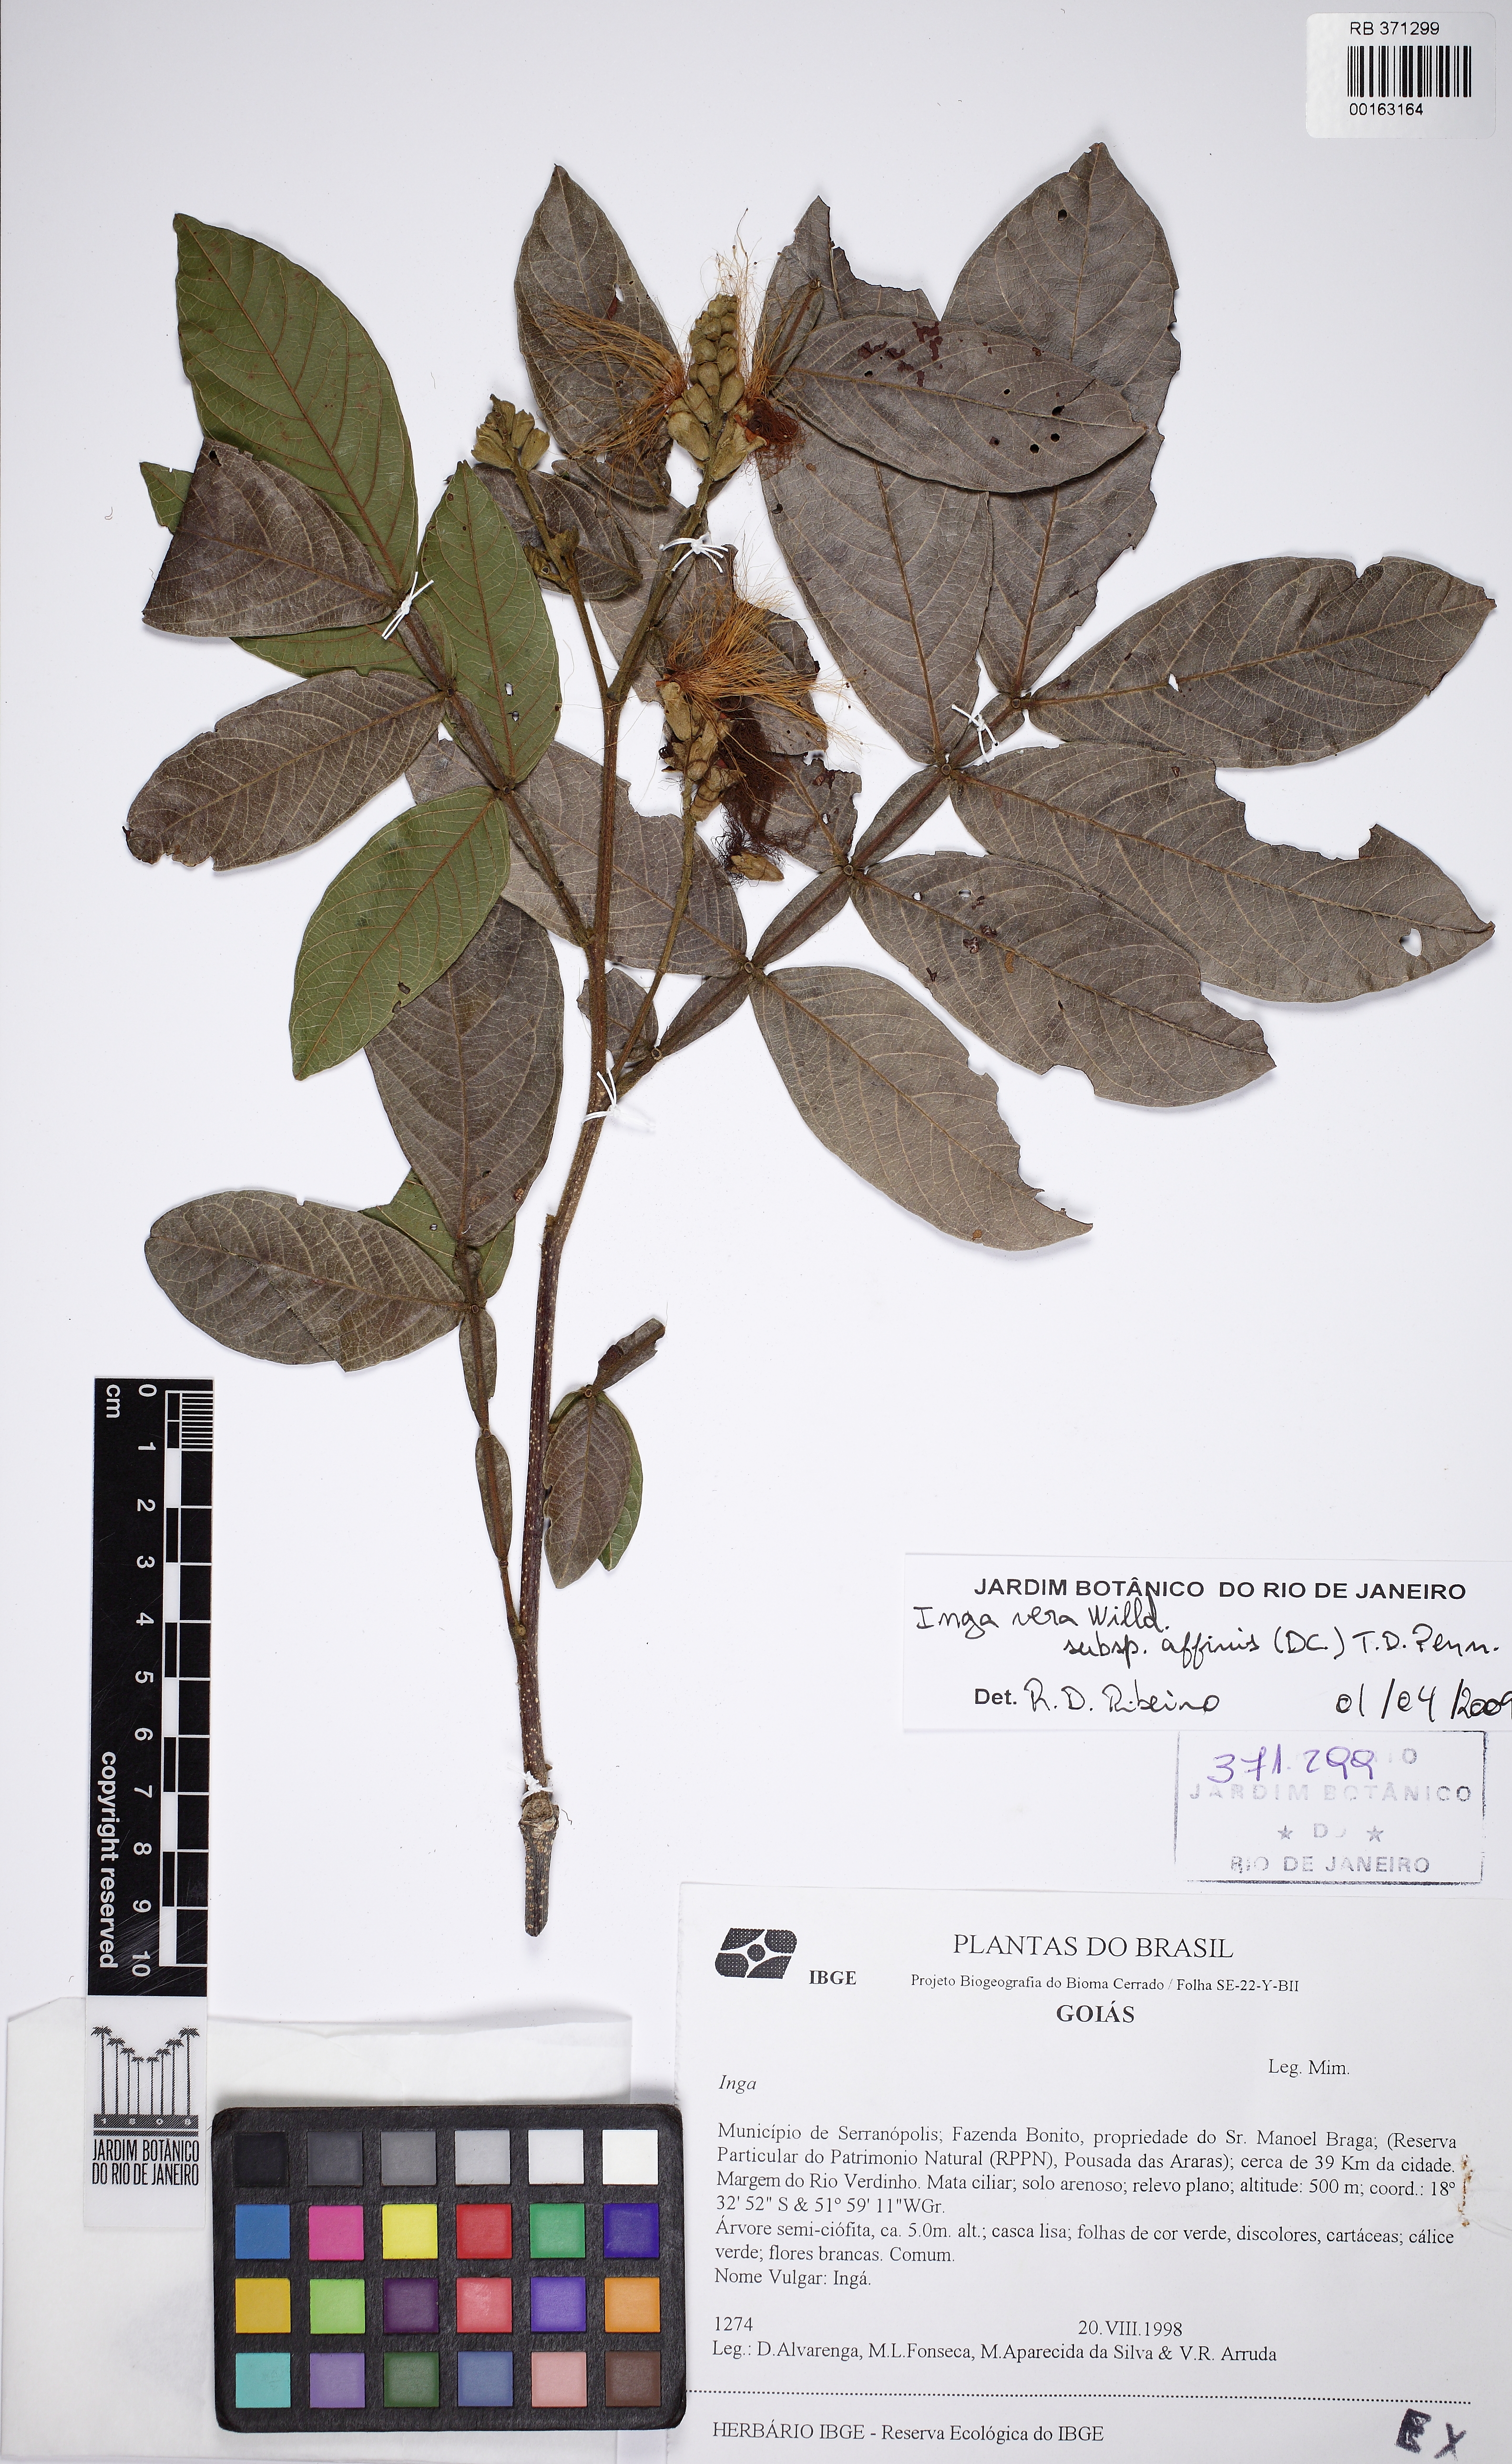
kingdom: Plantae
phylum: Tracheophyta
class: Magnoliopsida
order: Fabales
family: Fabaceae
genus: Inga
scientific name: Inga
